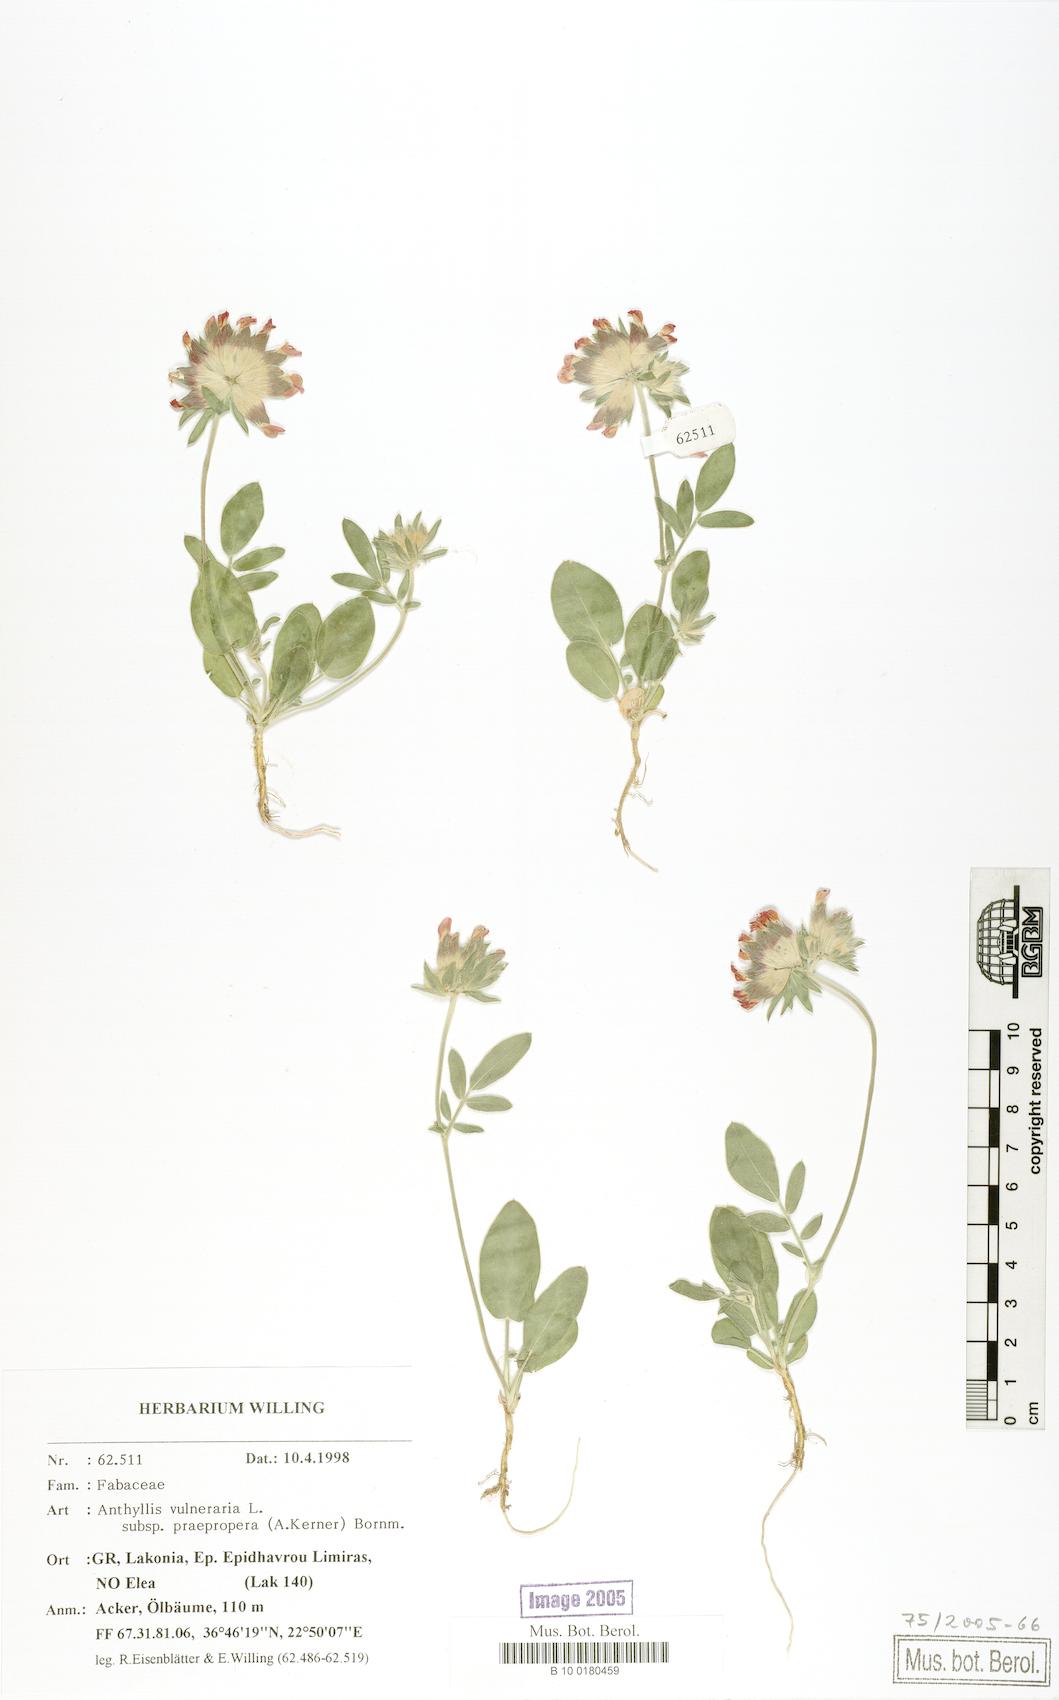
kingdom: Plantae
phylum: Tracheophyta
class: Magnoliopsida
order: Fabales
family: Fabaceae
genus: Anthyllis
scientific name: Anthyllis vulneraria
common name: Kidney vetch
